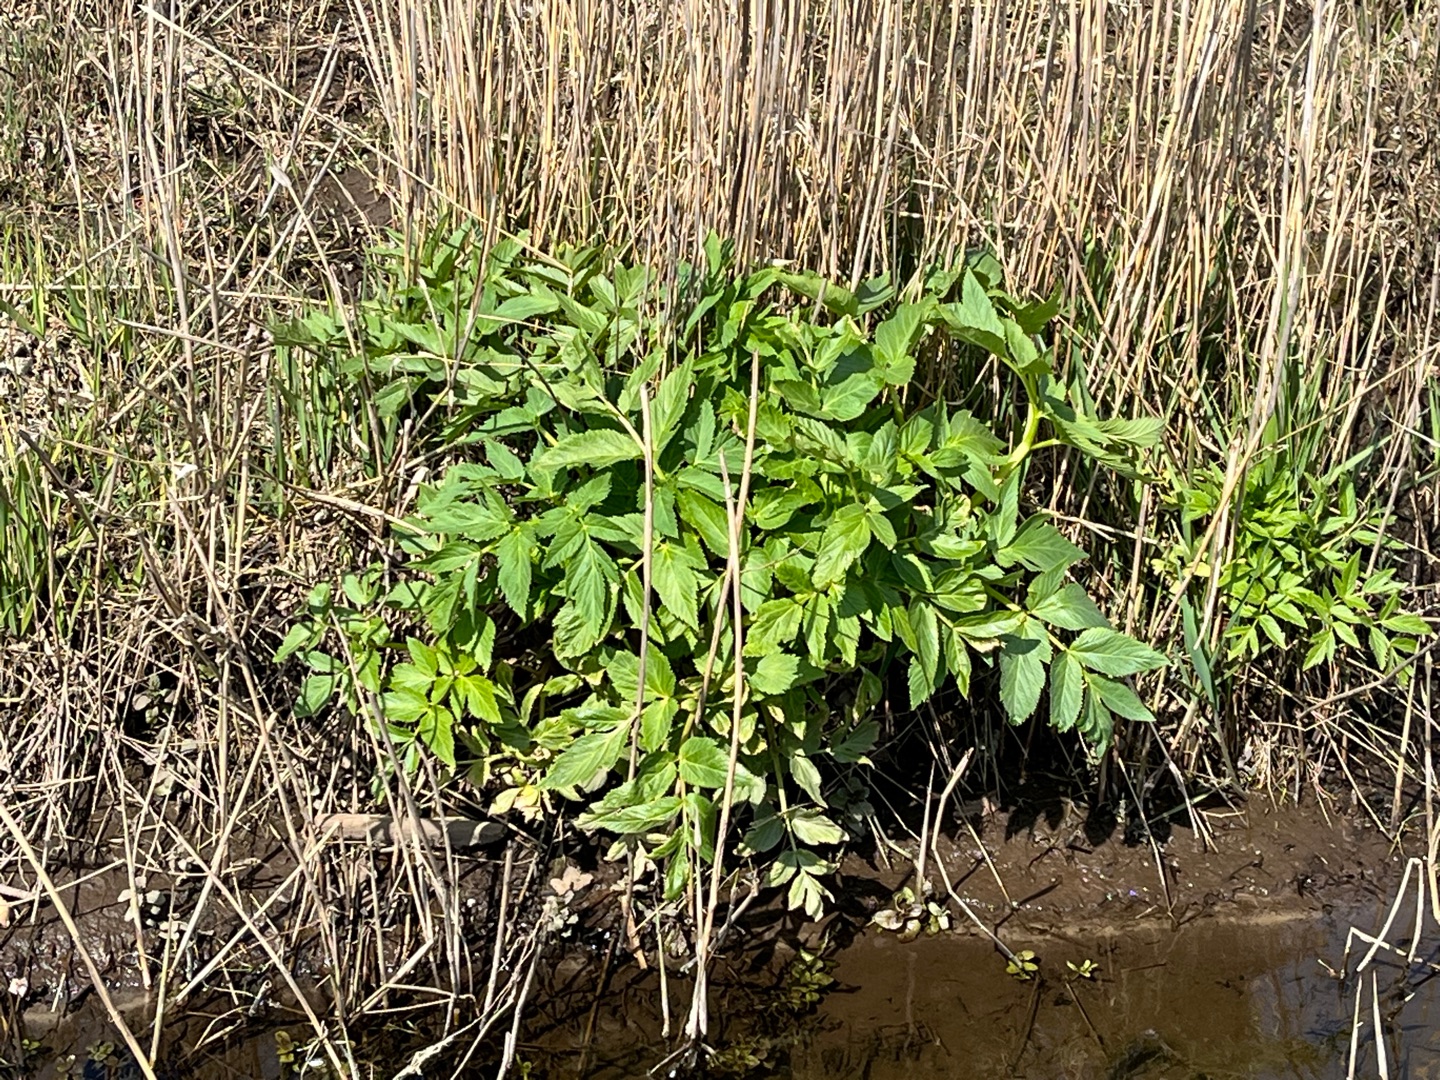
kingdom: Plantae
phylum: Tracheophyta
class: Magnoliopsida
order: Apiales
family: Apiaceae
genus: Angelica
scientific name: Angelica archangelica
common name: Kvan
